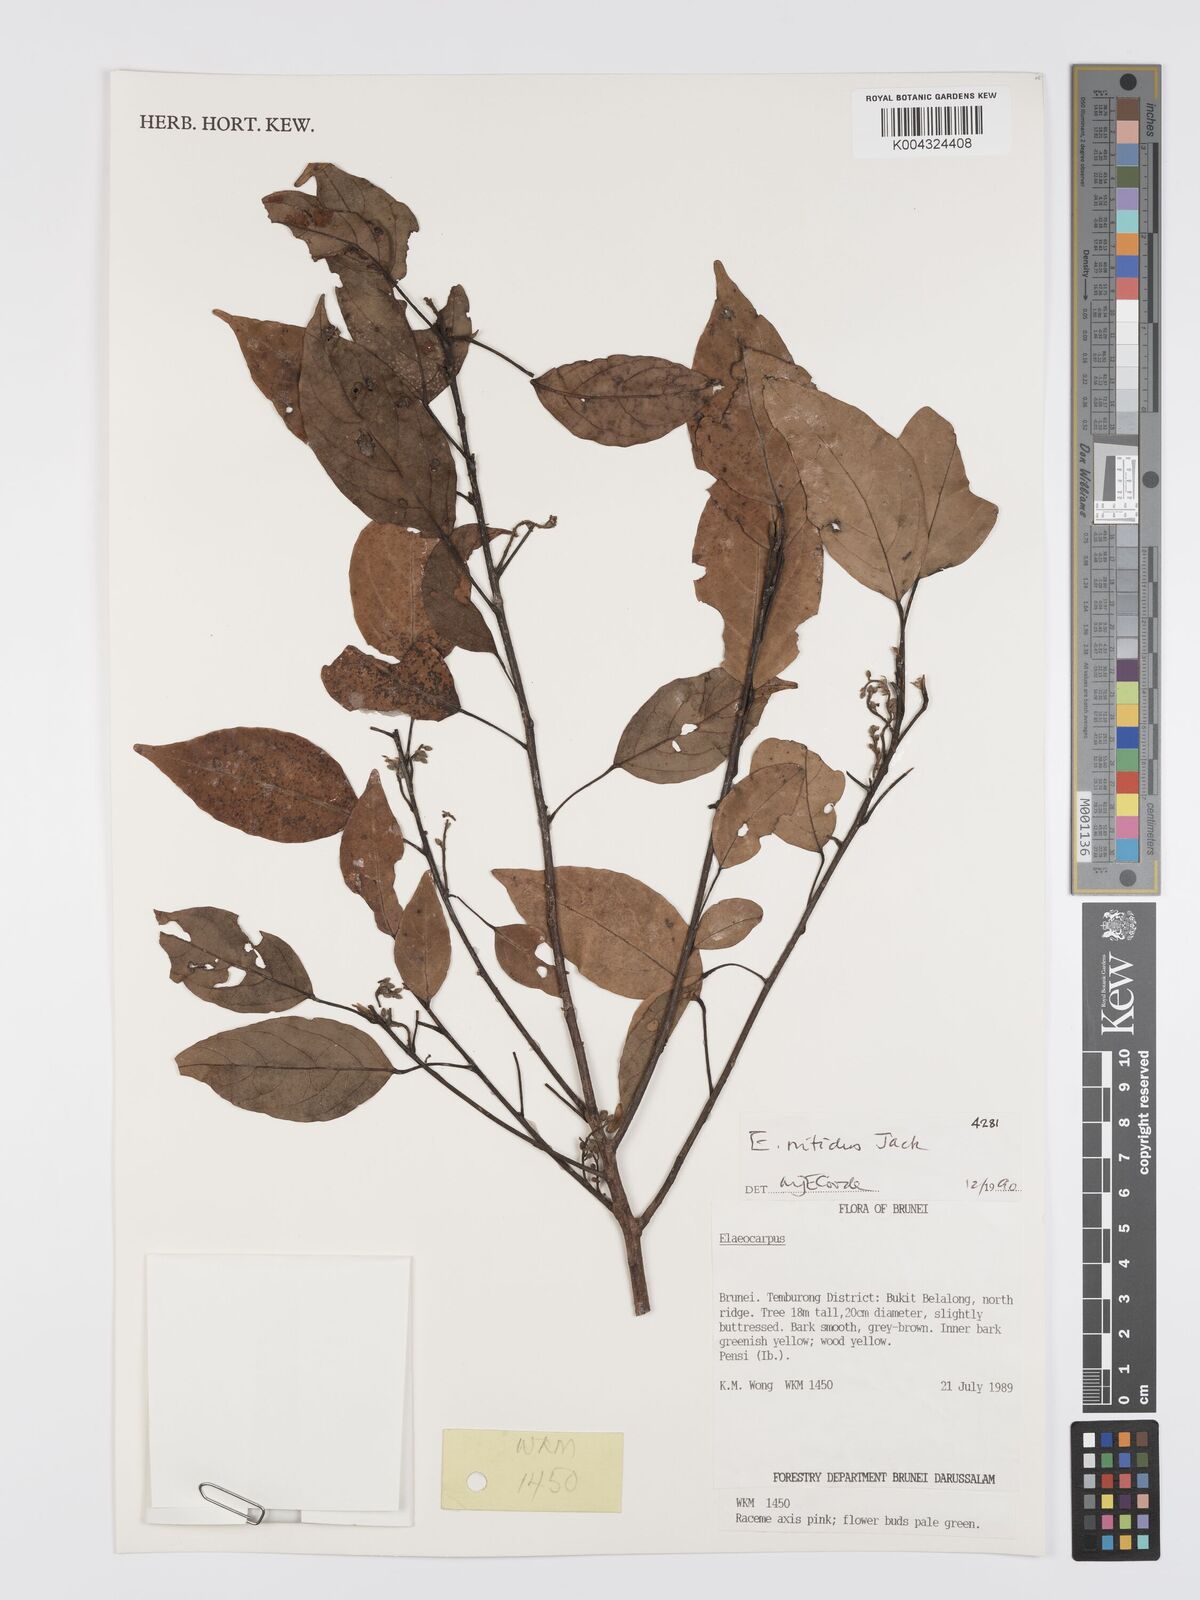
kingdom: Plantae
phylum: Tracheophyta
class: Magnoliopsida
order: Oxalidales
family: Elaeocarpaceae
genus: Elaeocarpus
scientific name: Elaeocarpus nitidus
